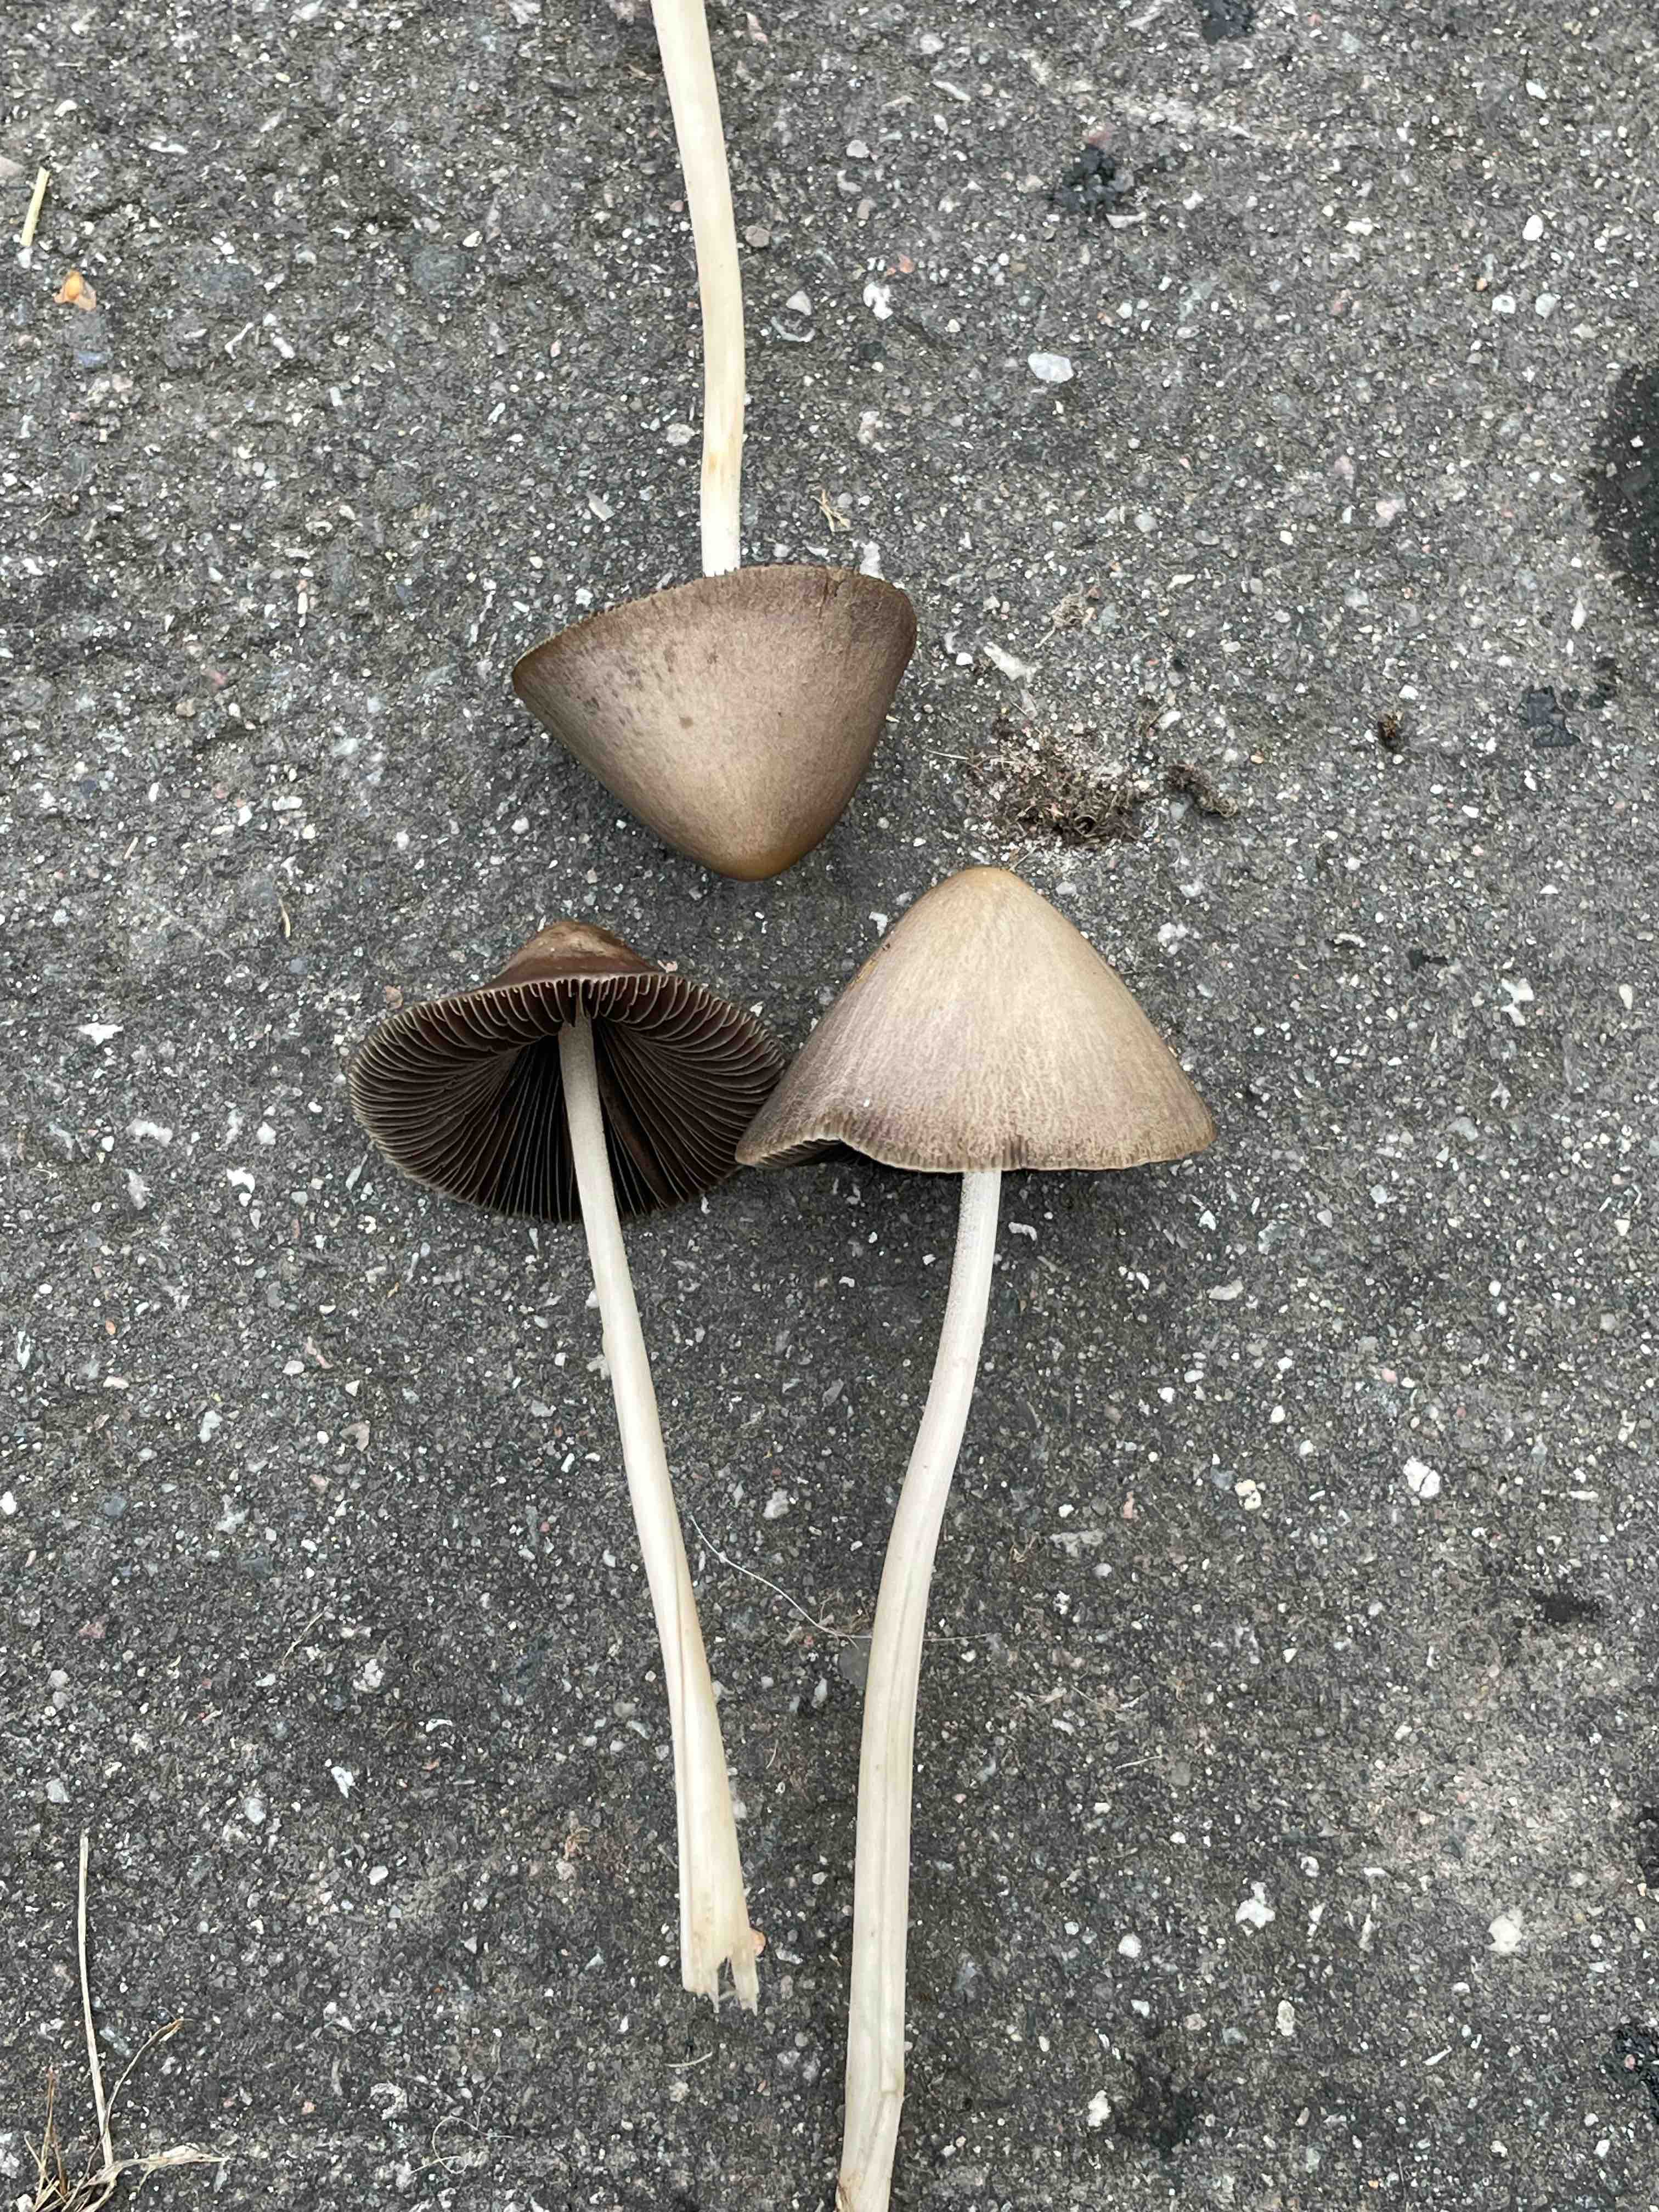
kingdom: Fungi
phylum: Basidiomycota
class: Agaricomycetes
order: Agaricales
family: Psathyrellaceae
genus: Parasola
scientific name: Parasola conopilea
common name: kegle-hjulhat
